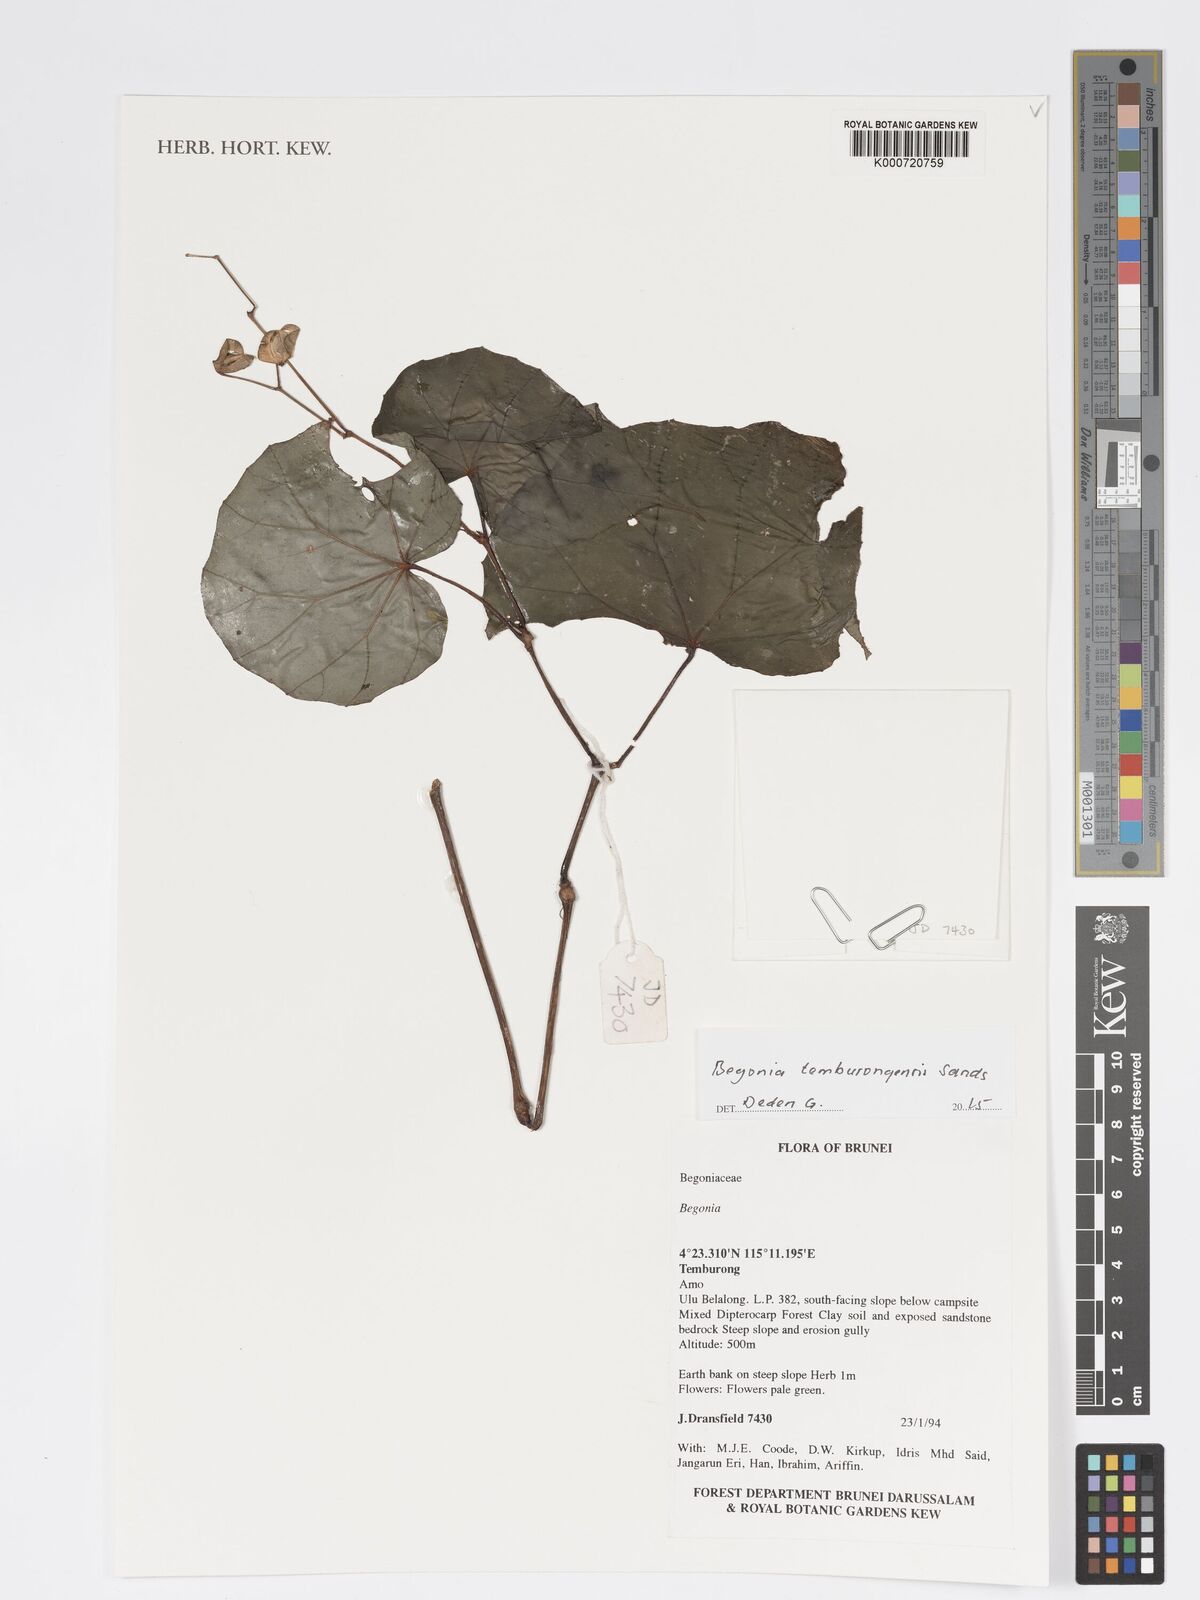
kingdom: Plantae
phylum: Tracheophyta
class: Magnoliopsida
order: Cucurbitales
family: Begoniaceae
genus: Begonia
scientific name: Begonia temburongensis
